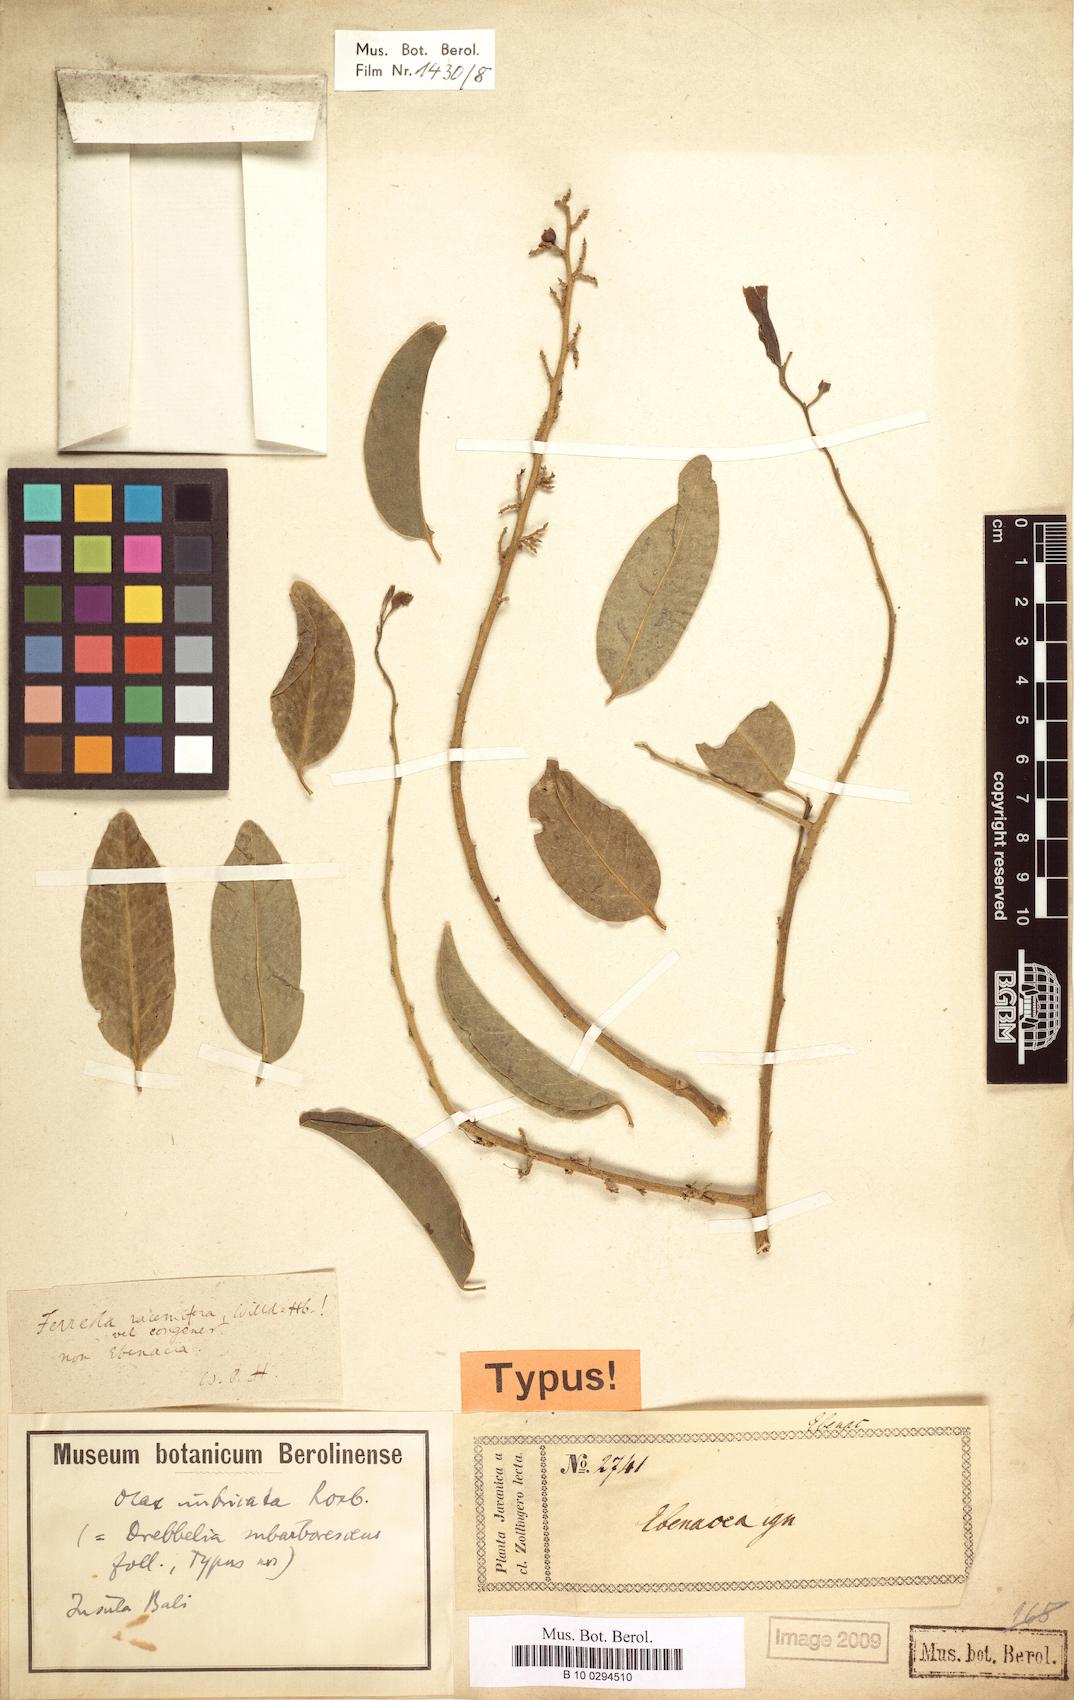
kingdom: Plantae
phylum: Tracheophyta
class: Magnoliopsida
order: Santalales
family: Olacaceae
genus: Olax
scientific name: Olax imbricata
